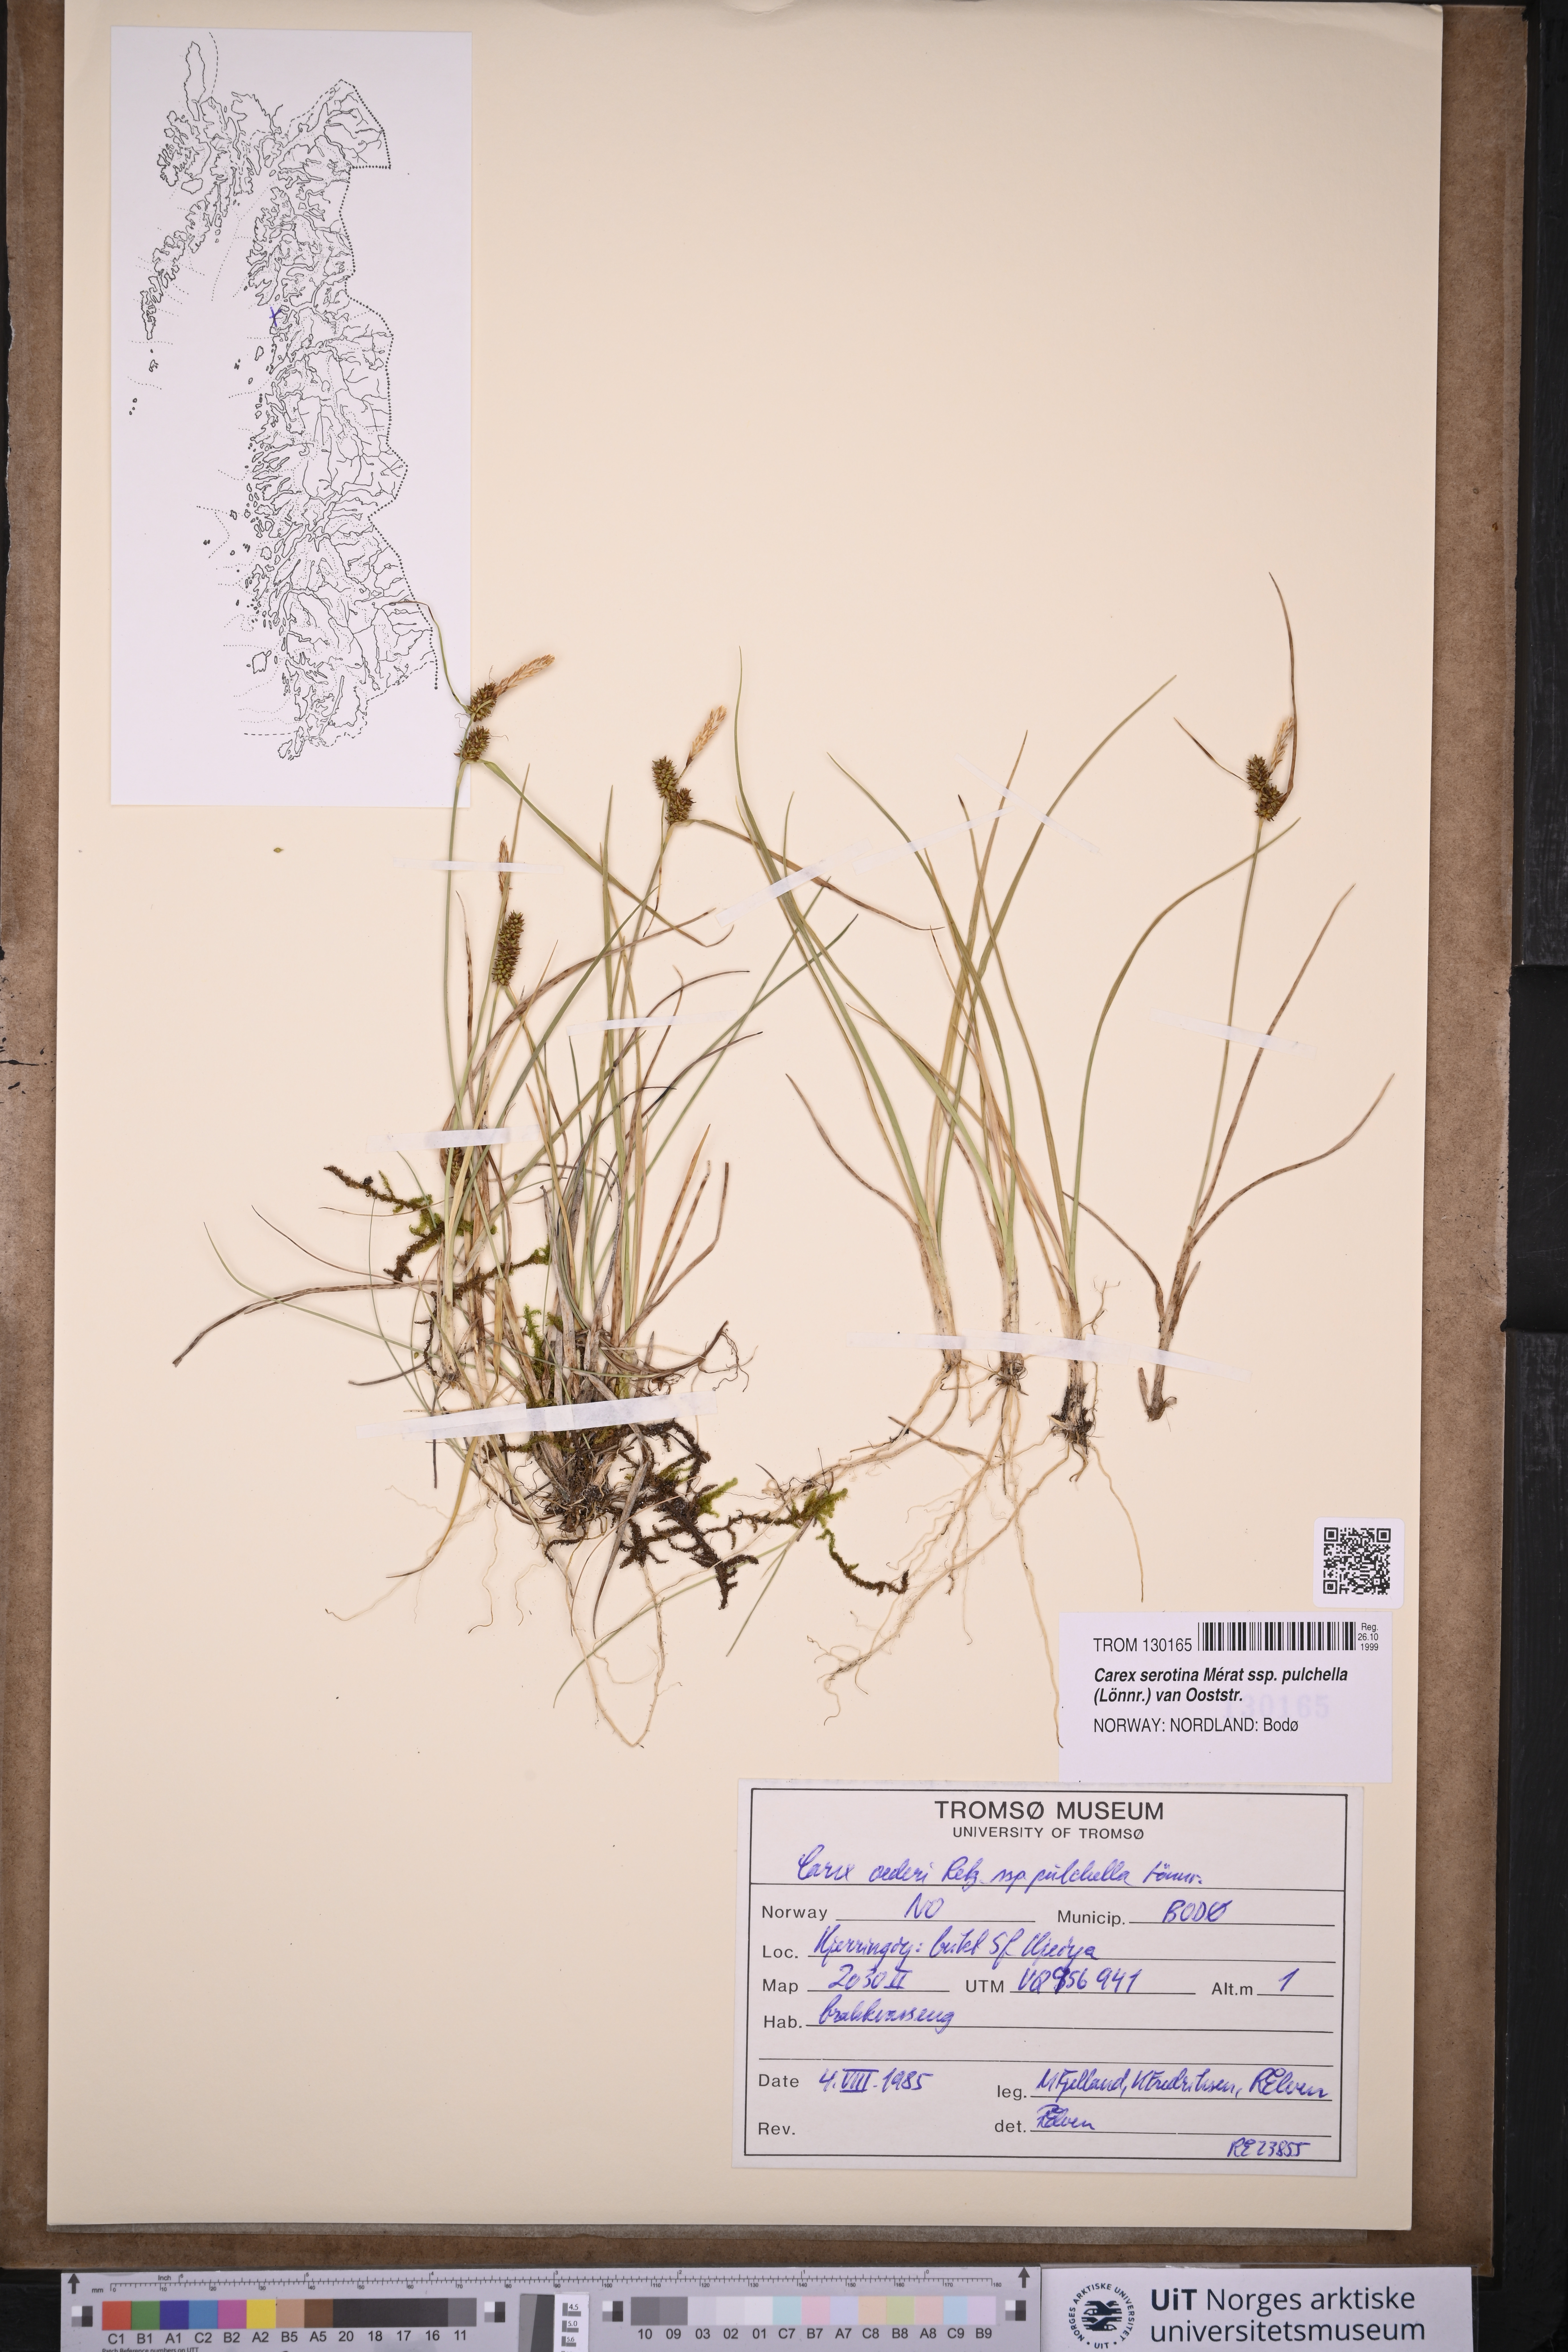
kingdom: Plantae
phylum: Tracheophyta
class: Liliopsida
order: Poales
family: Cyperaceae
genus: Carex
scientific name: Carex oederi
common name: Common & small-fruited yellow-sedge
